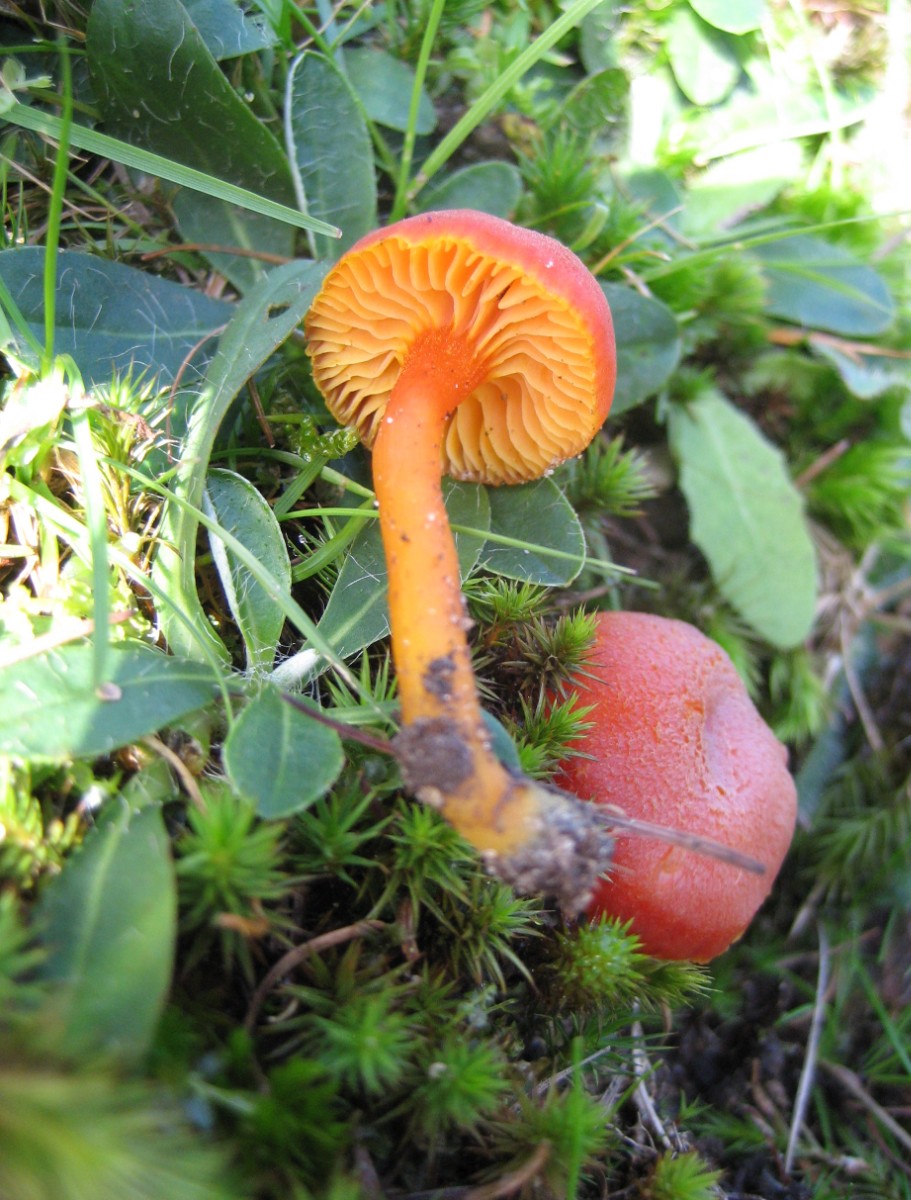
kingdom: Fungi
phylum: Basidiomycota
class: Agaricomycetes
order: Agaricales
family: Hygrophoraceae
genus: Hygrocybe
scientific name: Hygrocybe miniata
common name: mønje-vokshat
